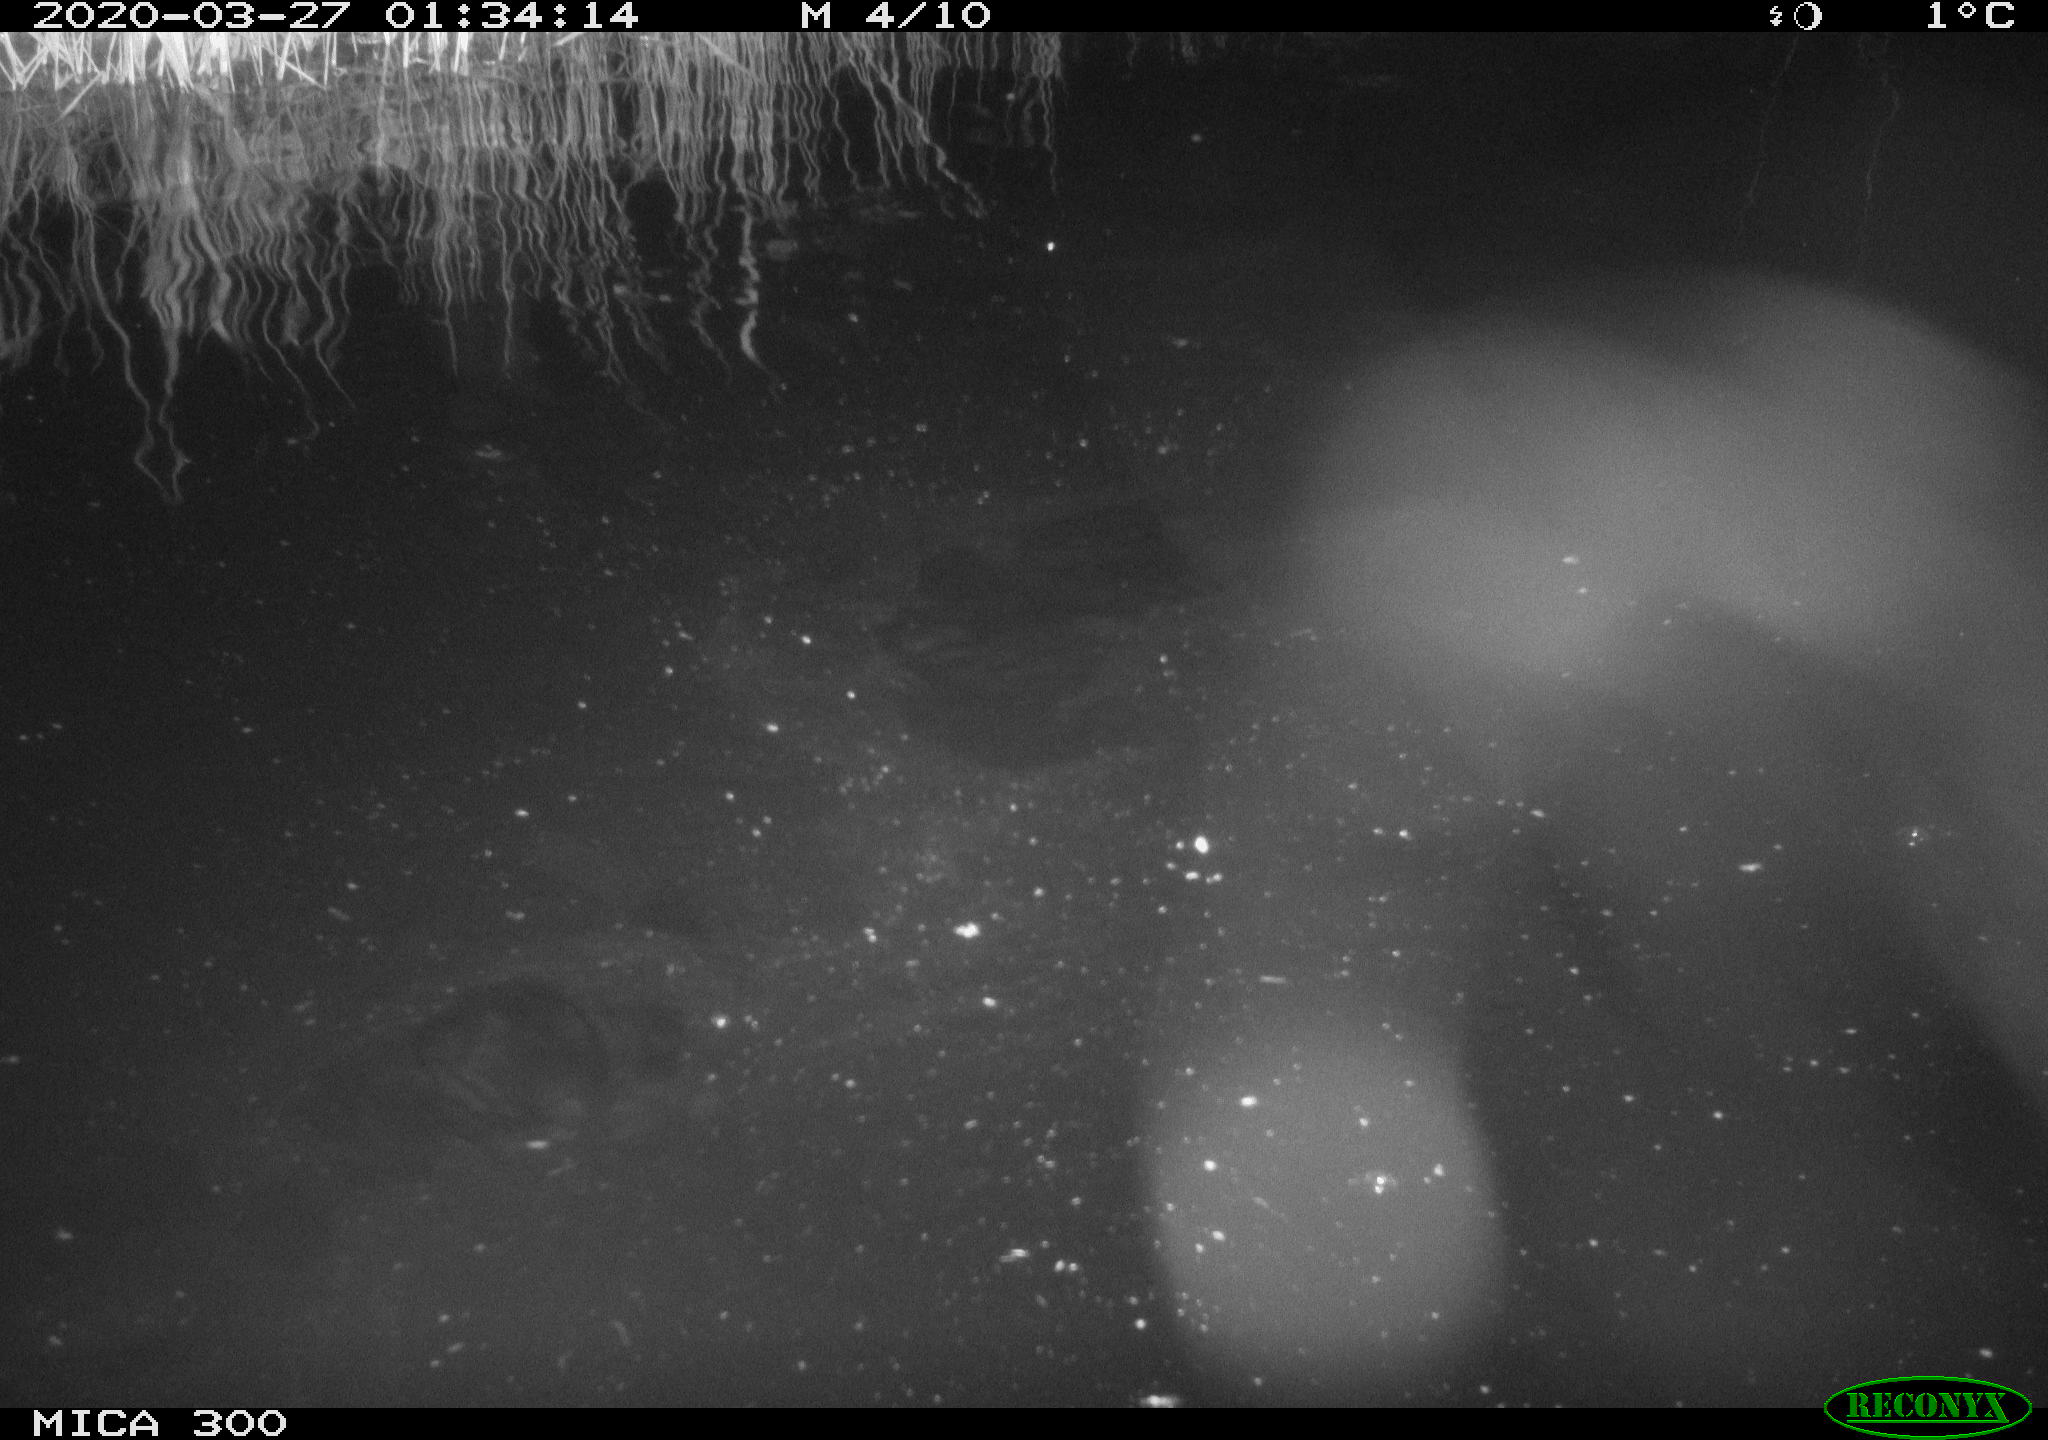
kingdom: Animalia
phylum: Chordata
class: Mammalia
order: Rodentia
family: Castoridae
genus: Castor
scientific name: Castor fiber
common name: Eurasian beaver
